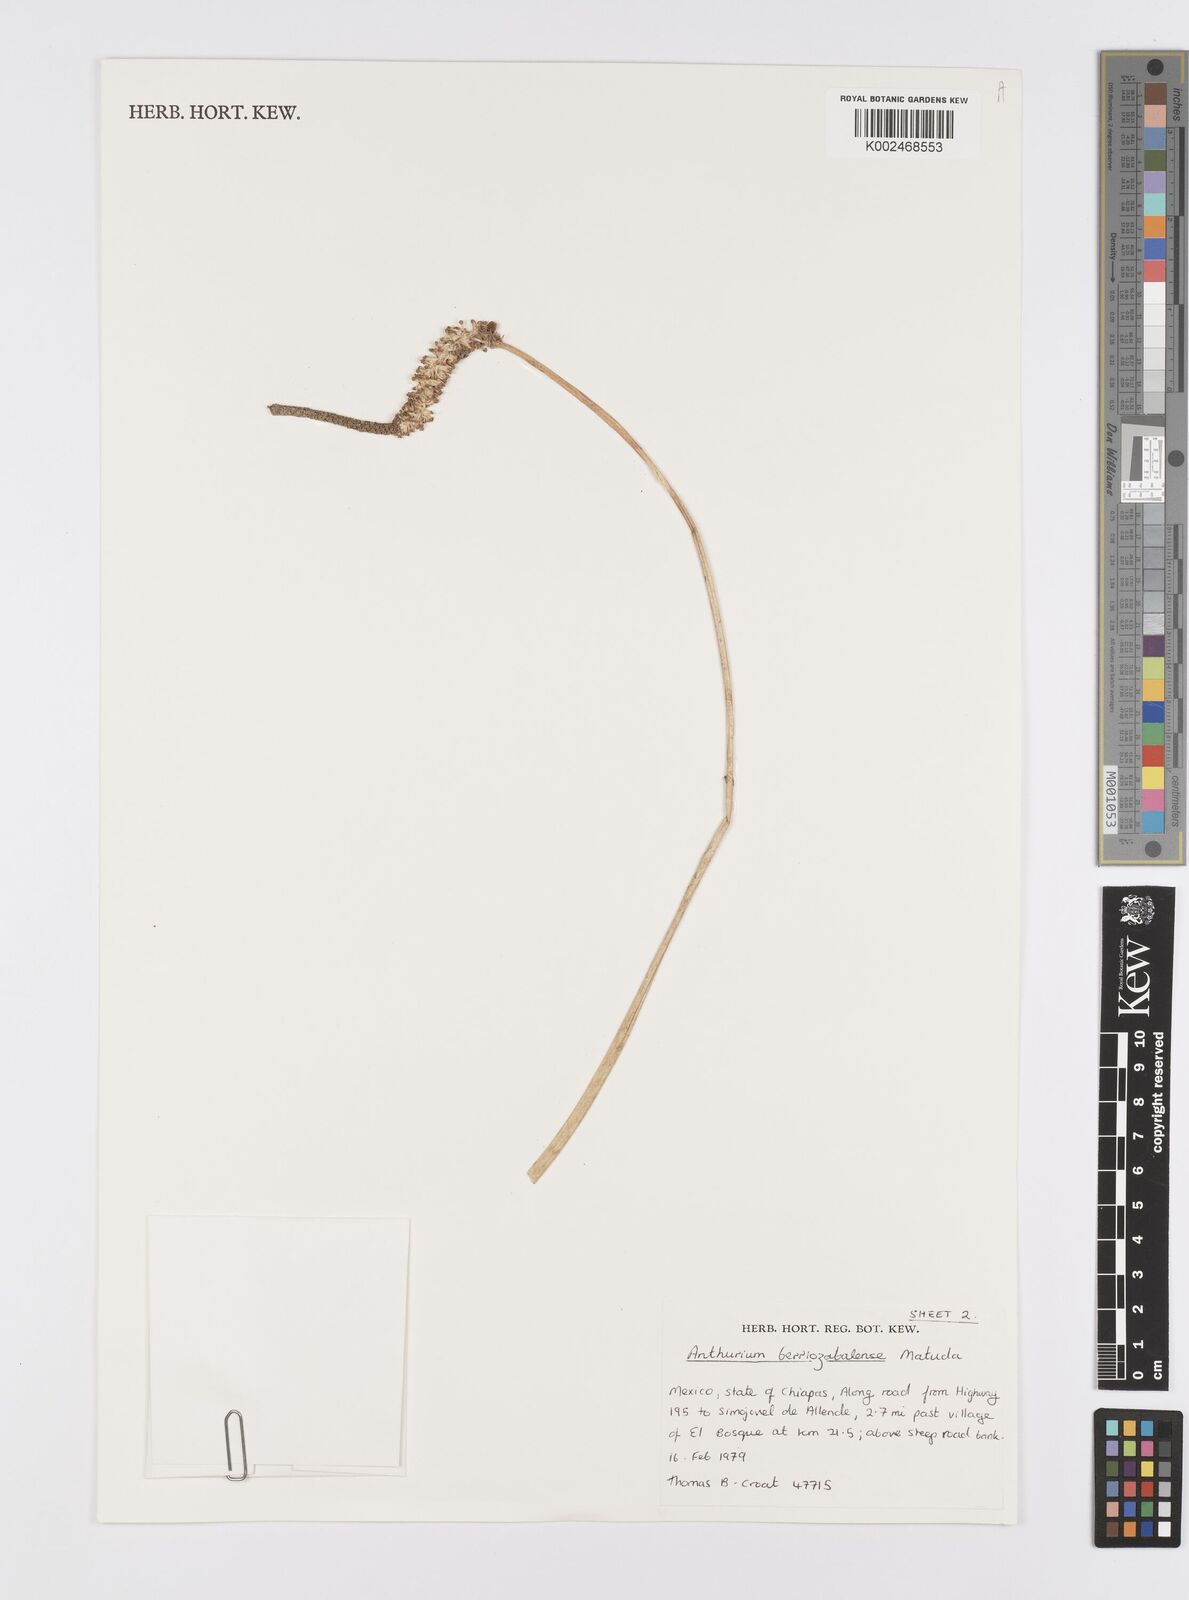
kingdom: Plantae
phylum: Tracheophyta
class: Liliopsida
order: Alismatales
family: Araceae
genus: Anthurium
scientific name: Anthurium berriozabalense
